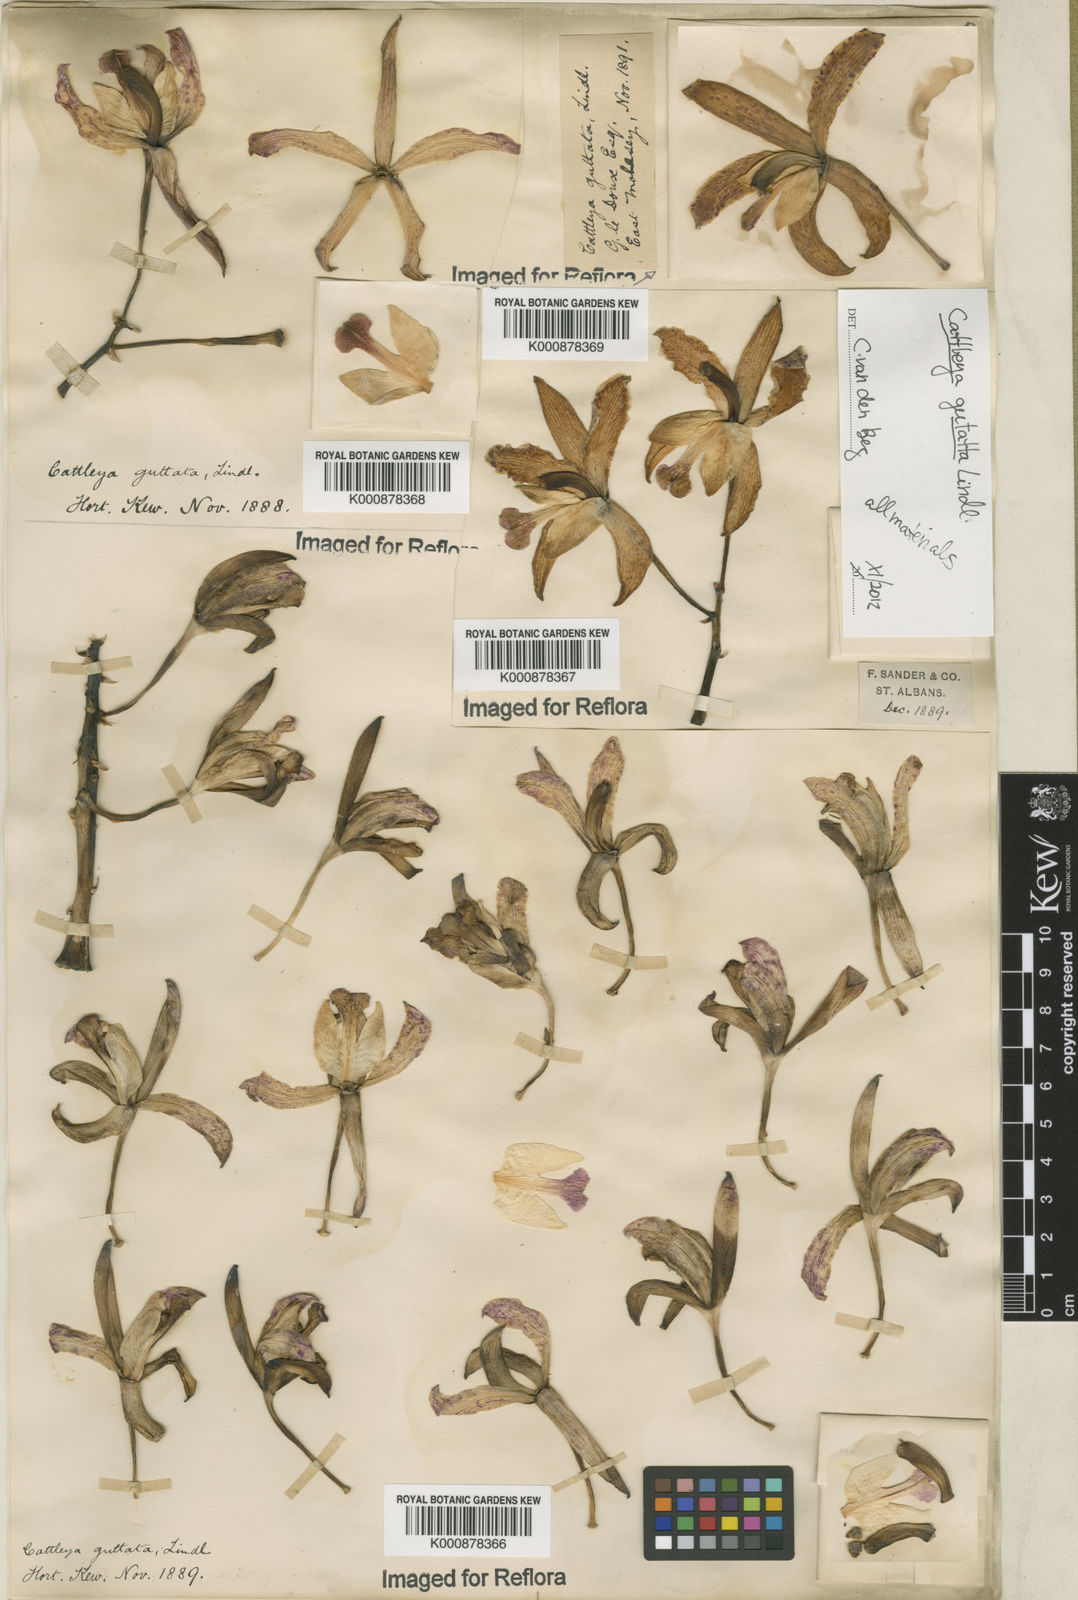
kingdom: Plantae
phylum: Tracheophyta
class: Liliopsida
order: Asparagales
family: Orchidaceae
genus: Cattleya
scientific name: Cattleya guttata
